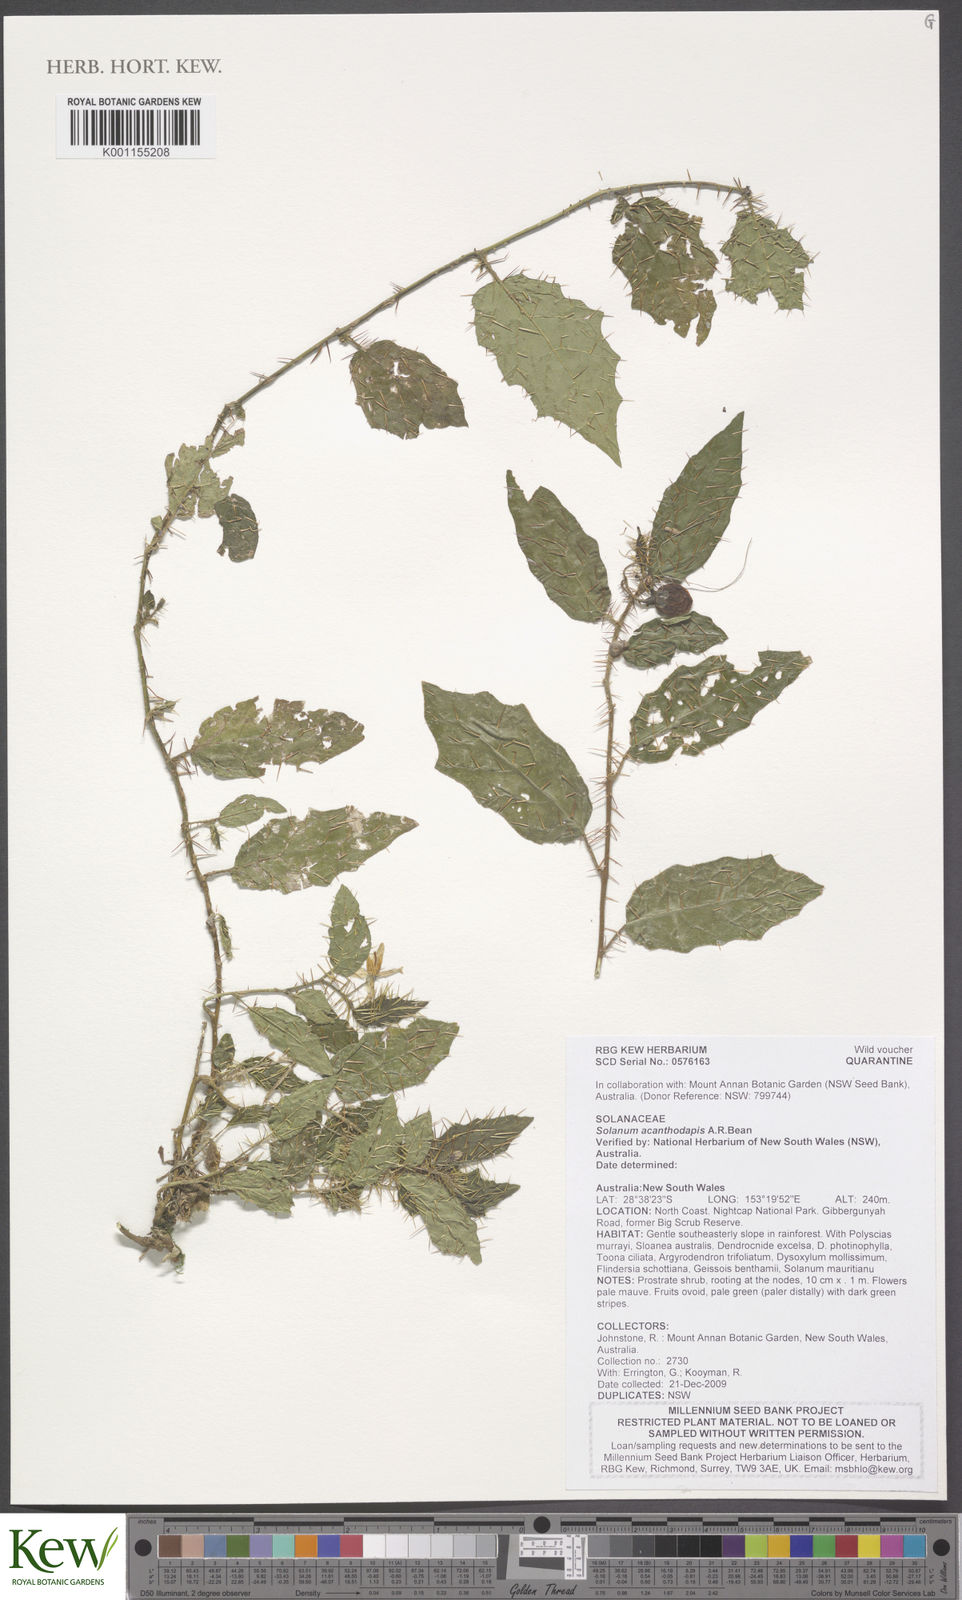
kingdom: Plantae
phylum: Tracheophyta
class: Magnoliopsida
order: Solanales
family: Solanaceae
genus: Solanum
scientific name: Solanum acanthodapis
